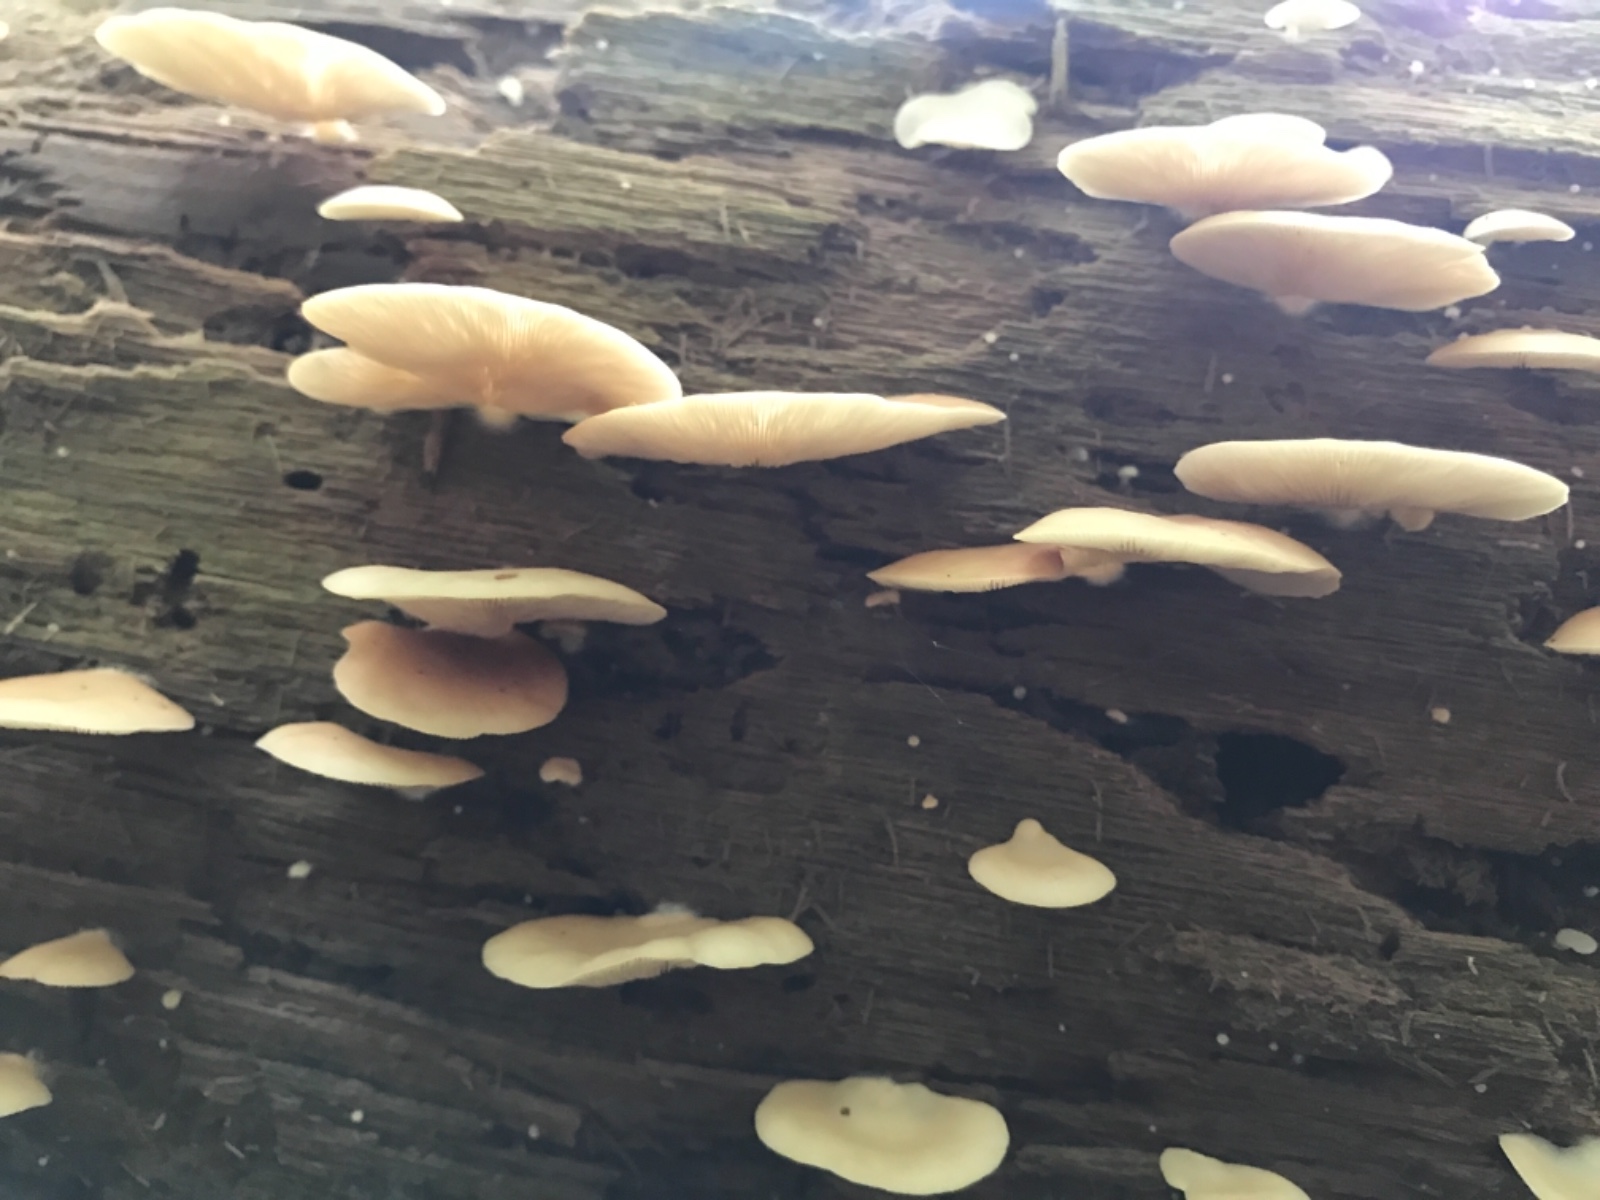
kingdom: Fungi
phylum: Basidiomycota
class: Agaricomycetes
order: Agaricales
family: Crepidotaceae
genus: Crepidotus
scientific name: Crepidotus mollis
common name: blød muslingesvamp
